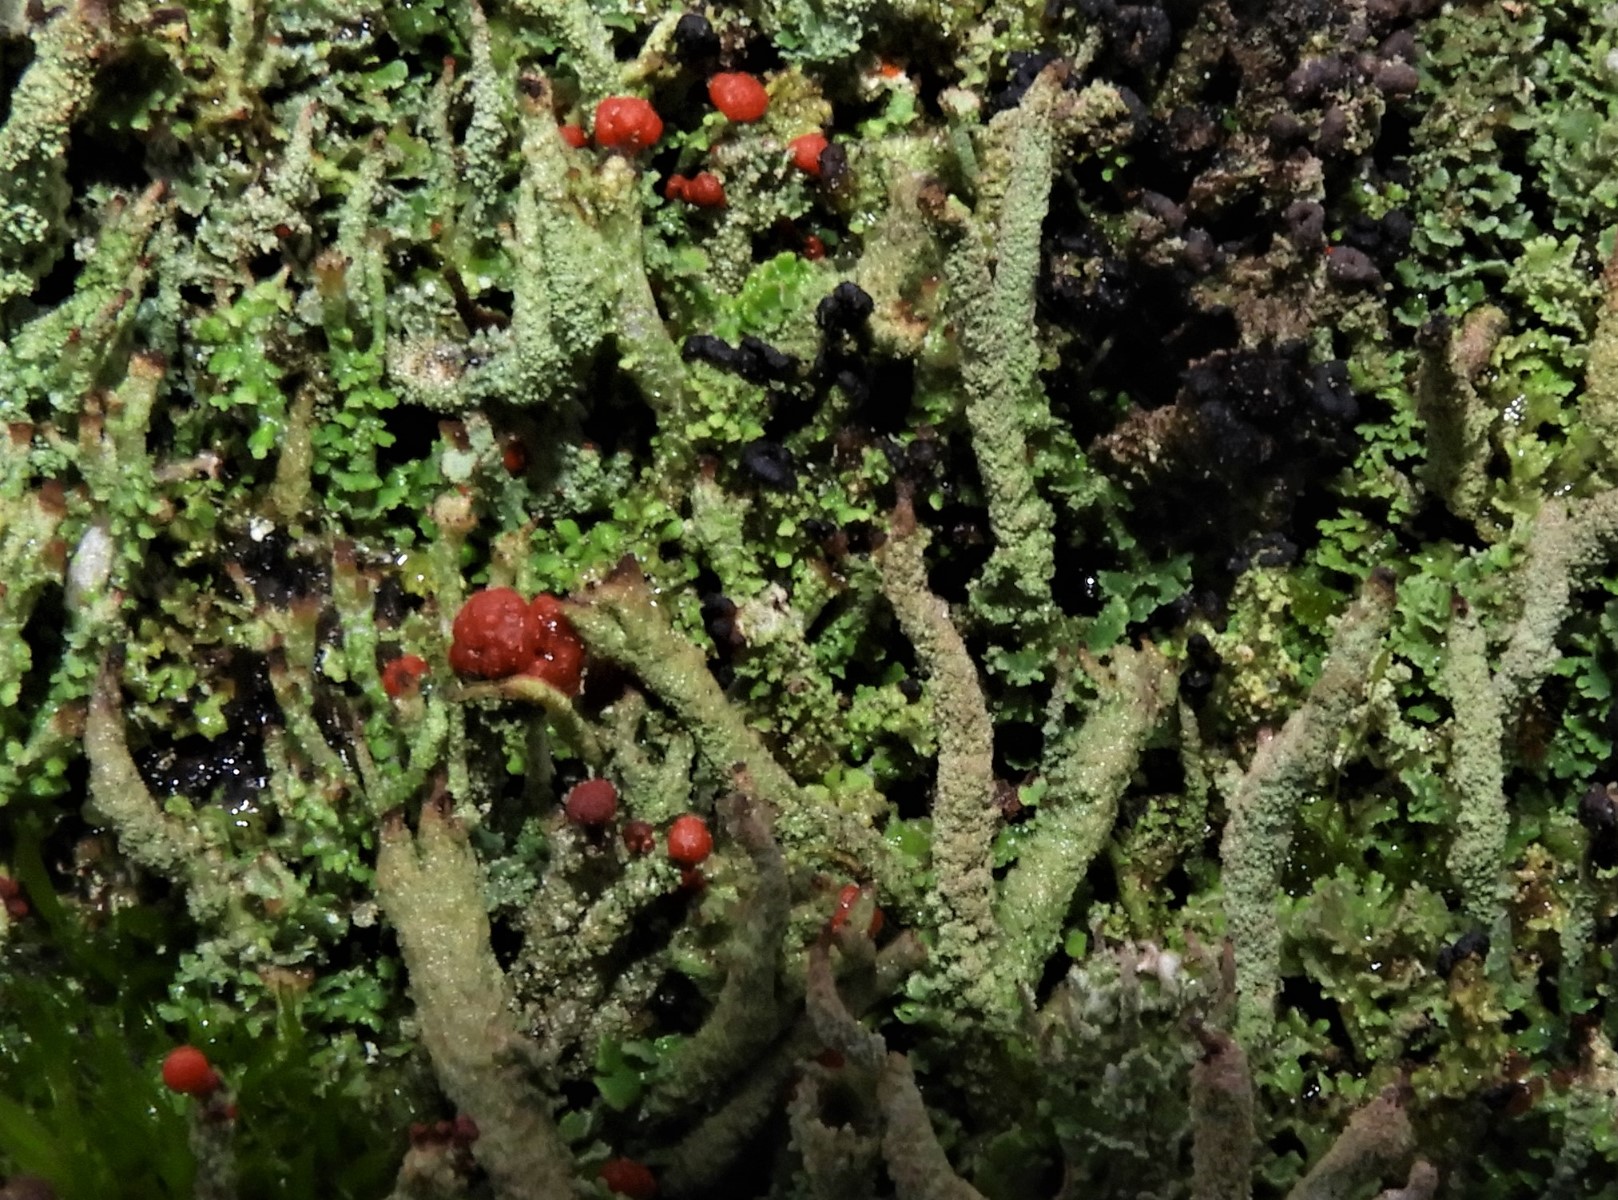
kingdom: Fungi
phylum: Ascomycota
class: Lecanoromycetes
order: Lecanorales
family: Cladoniaceae
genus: Cladonia
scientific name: Cladonia floerkeana
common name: lakrød bægerlav
